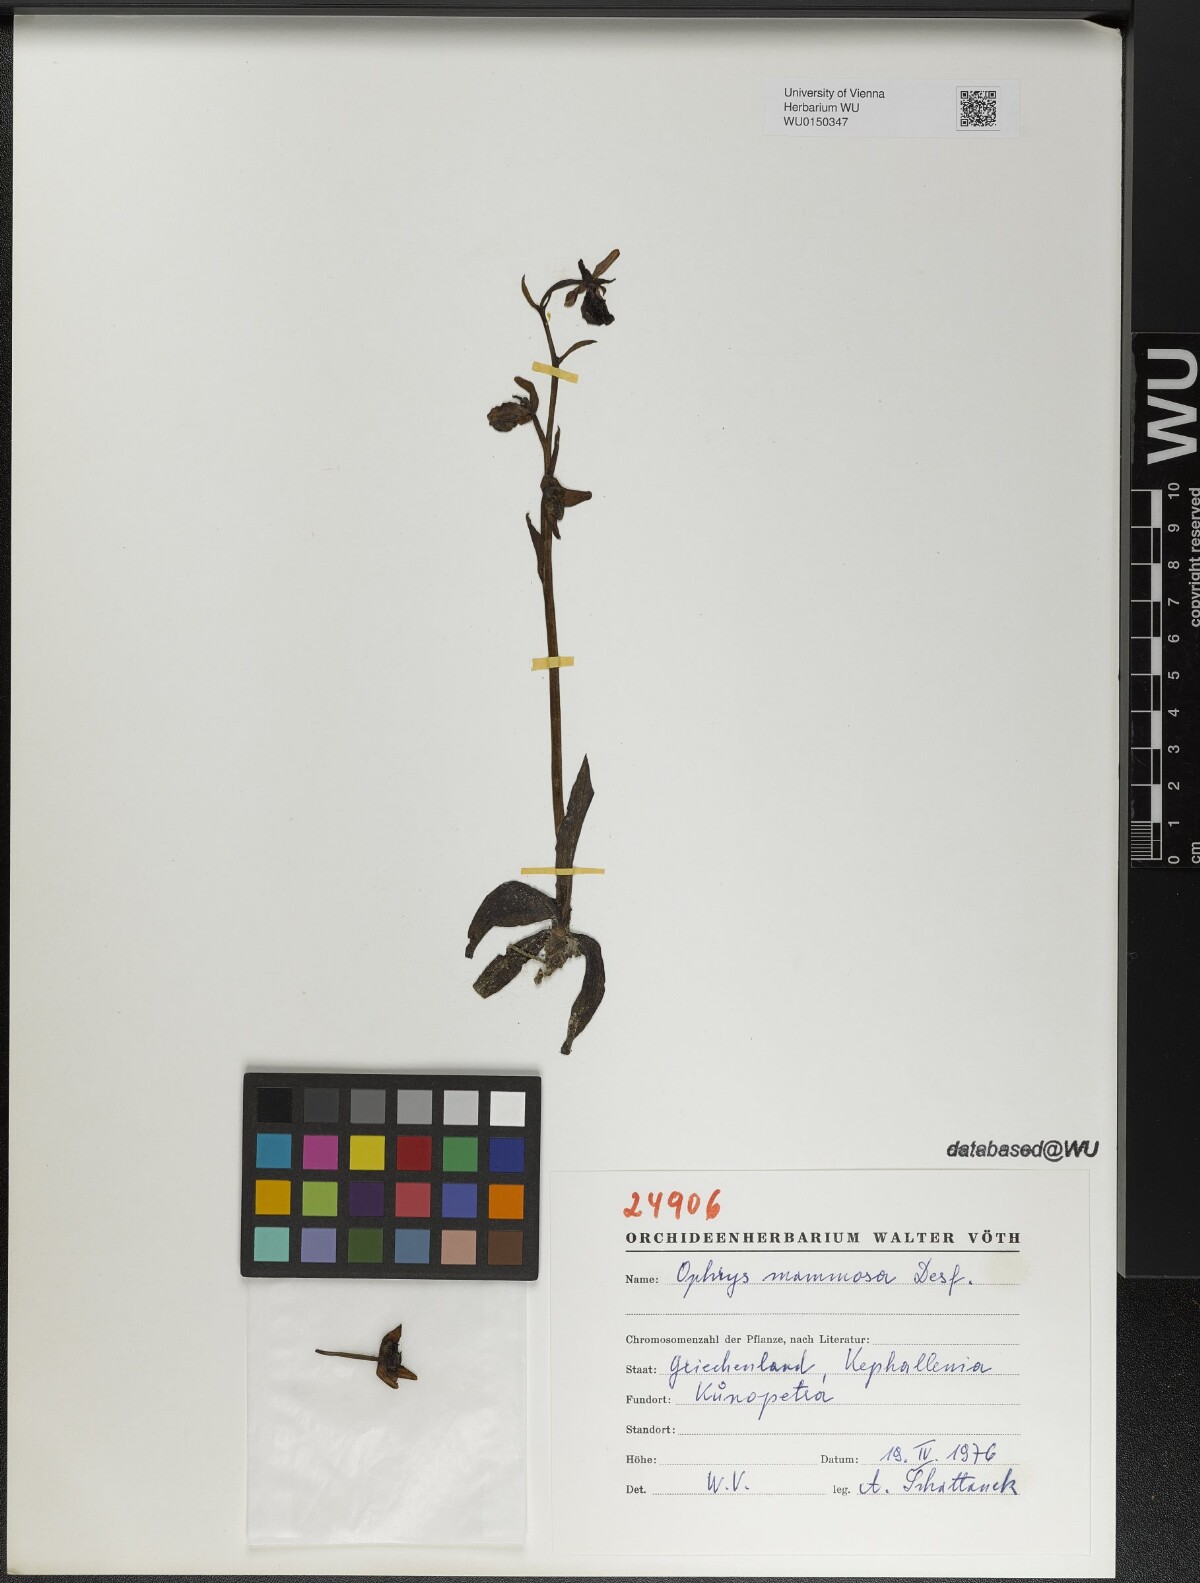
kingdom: Plantae
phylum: Tracheophyta
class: Liliopsida
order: Asparagales
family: Orchidaceae
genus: Ophrys
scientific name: Ophrys sphegodes
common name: Early spider-orchid
